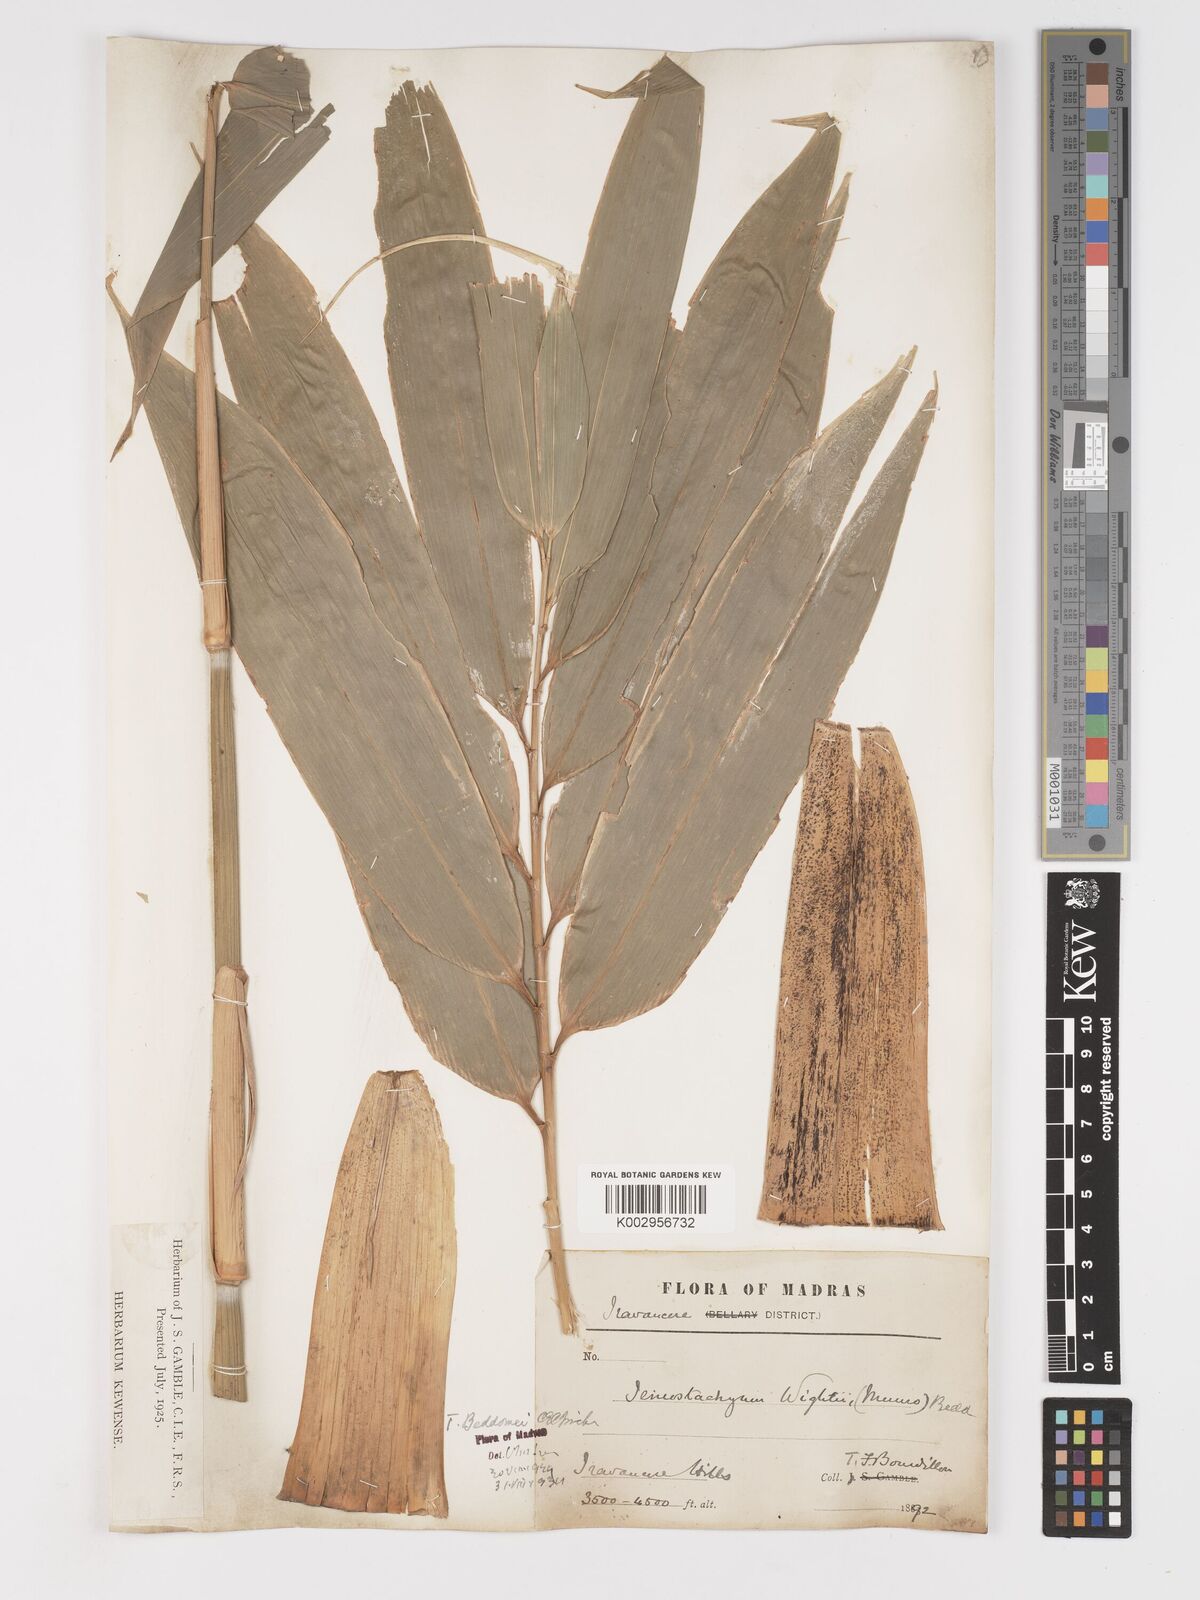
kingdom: Plantae
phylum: Tracheophyta
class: Liliopsida
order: Poales
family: Poaceae
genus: Schizostachyum
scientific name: Schizostachyum beddomei
